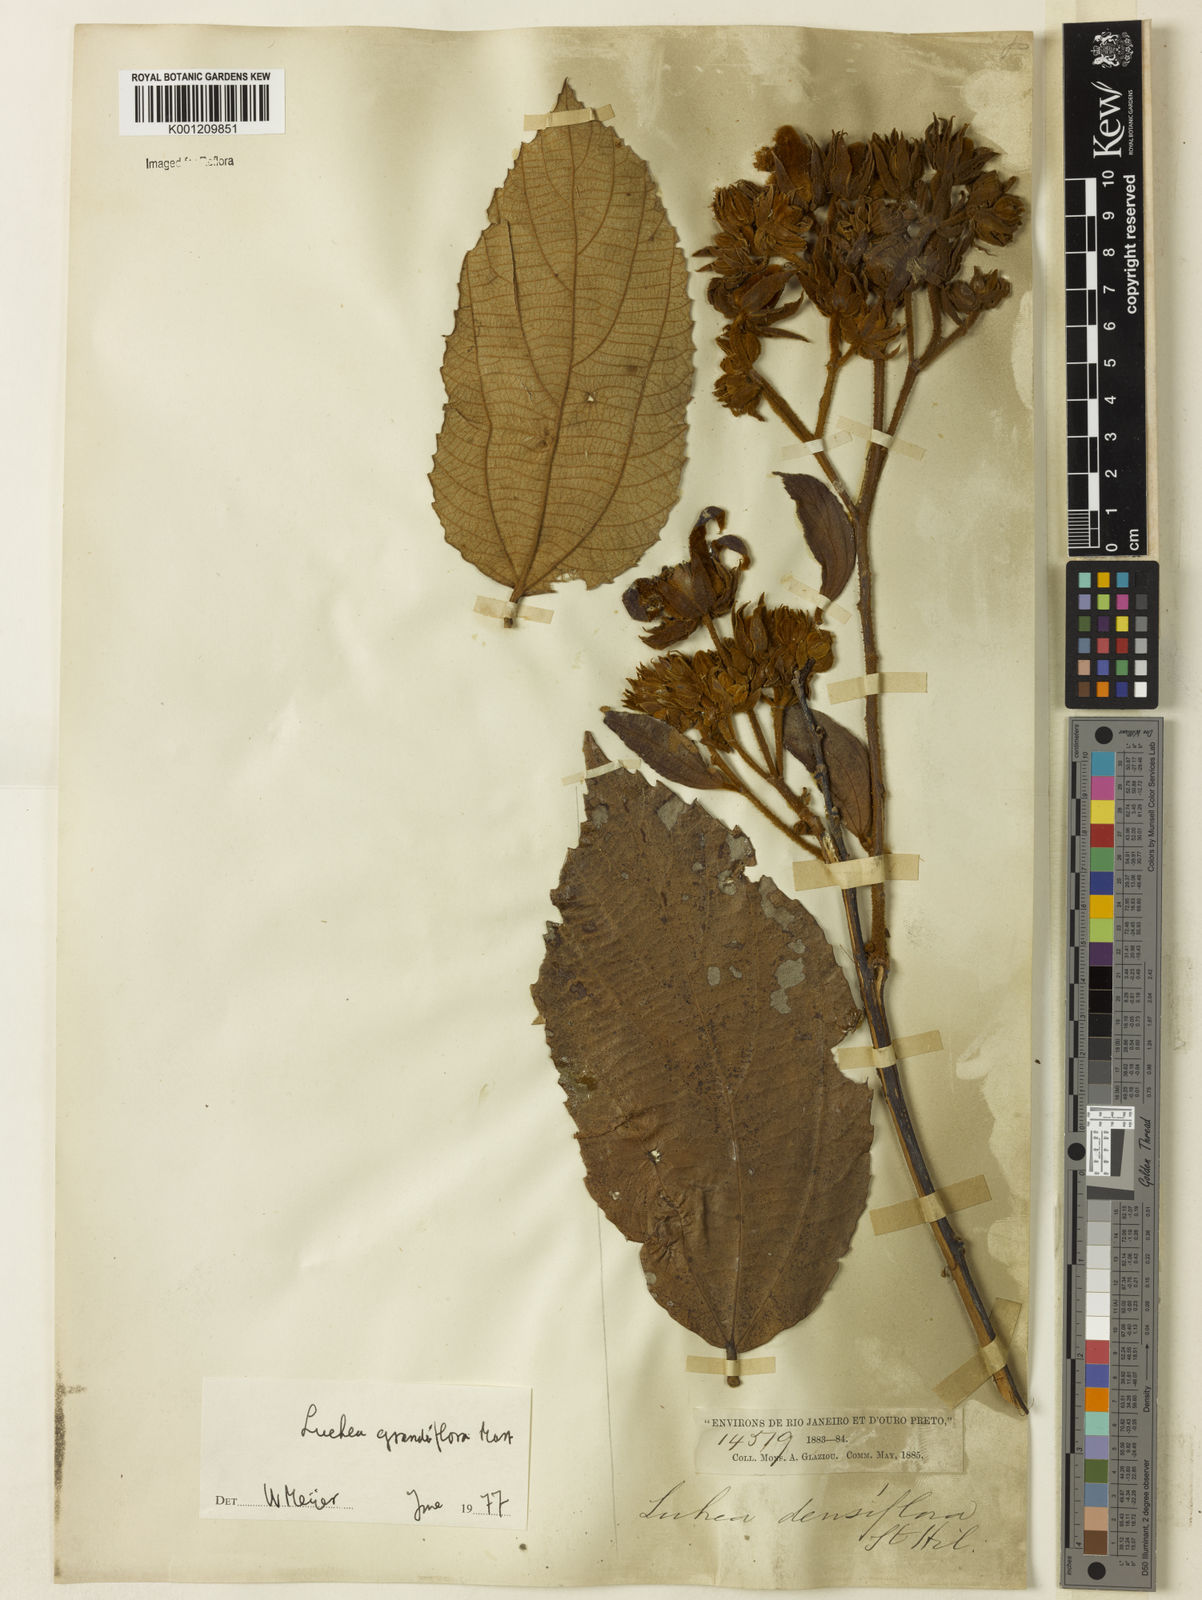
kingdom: Plantae
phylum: Tracheophyta
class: Magnoliopsida
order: Malvales
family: Malvaceae
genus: Luehea
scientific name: Luehea grandiflora
